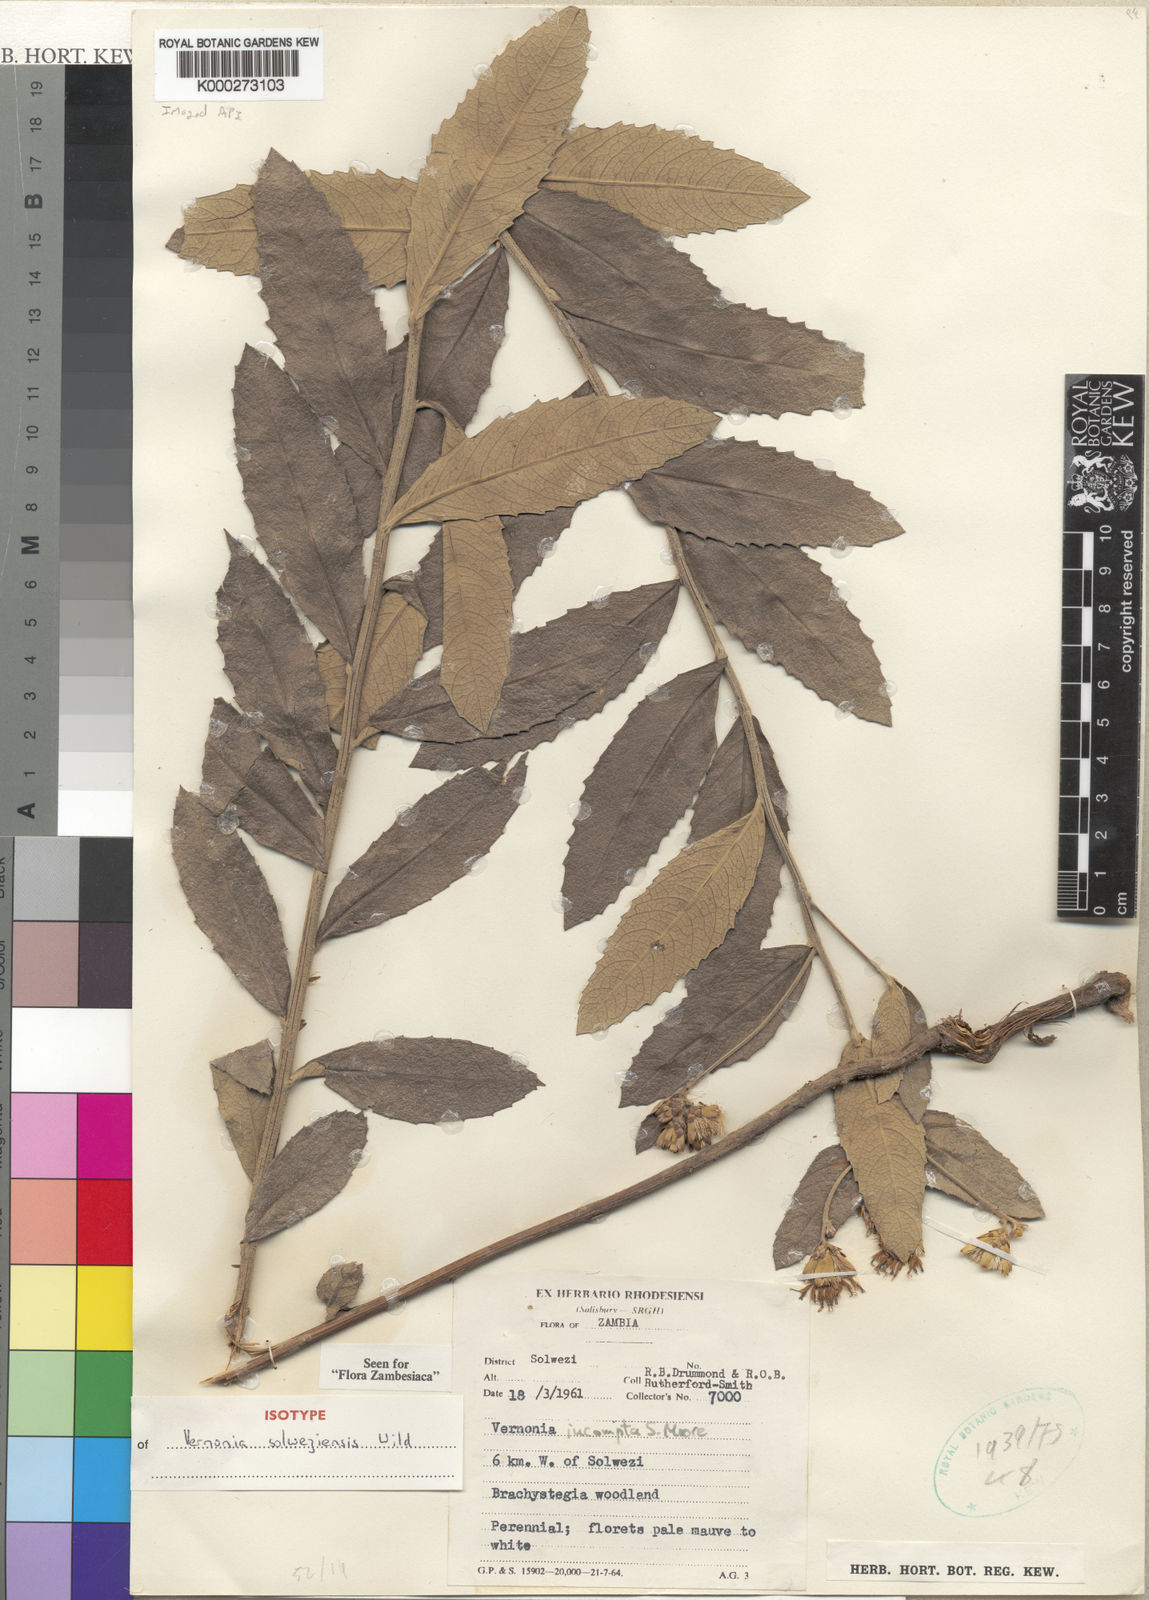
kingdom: Plantae
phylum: Tracheophyta
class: Magnoliopsida
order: Asterales
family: Asteraceae
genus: Vernonia
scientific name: Vernonia solweziensis
